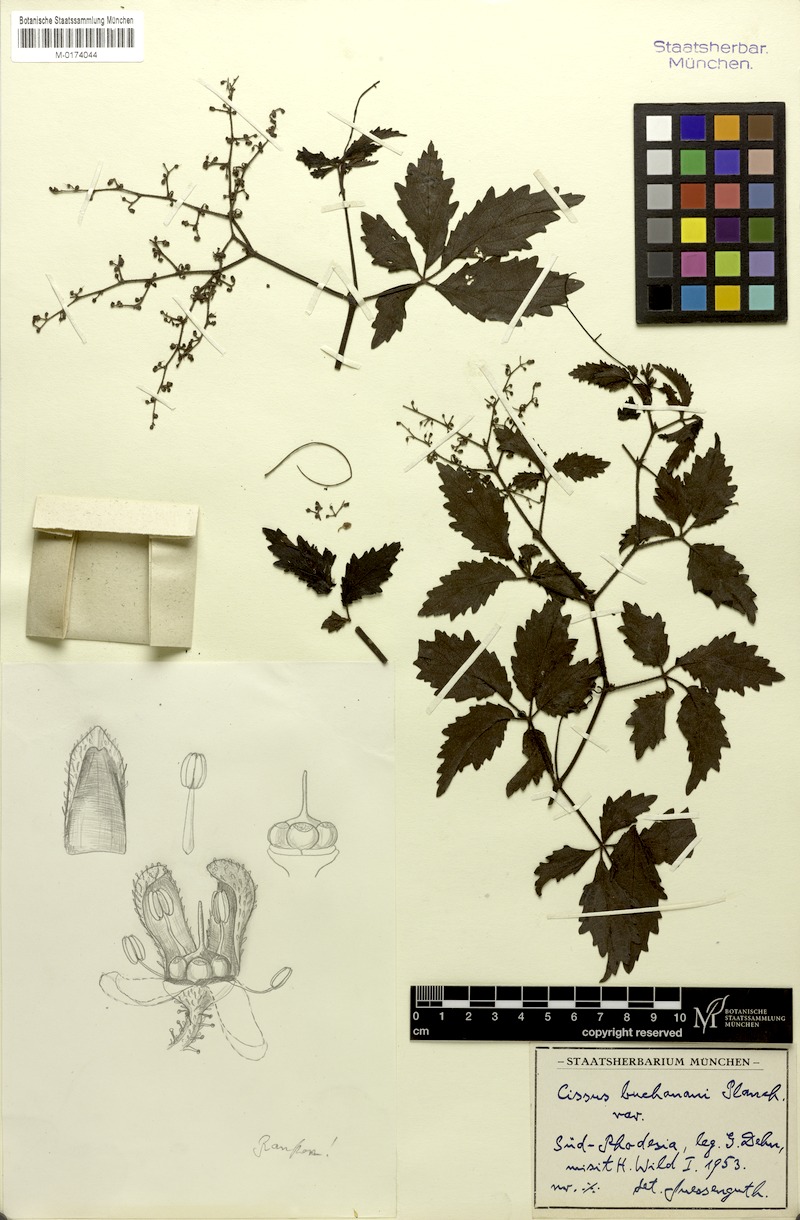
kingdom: Plantae
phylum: Tracheophyta
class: Magnoliopsida
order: Vitales
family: Vitaceae
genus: Cyphostemma
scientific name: Cyphostemma buchananii
